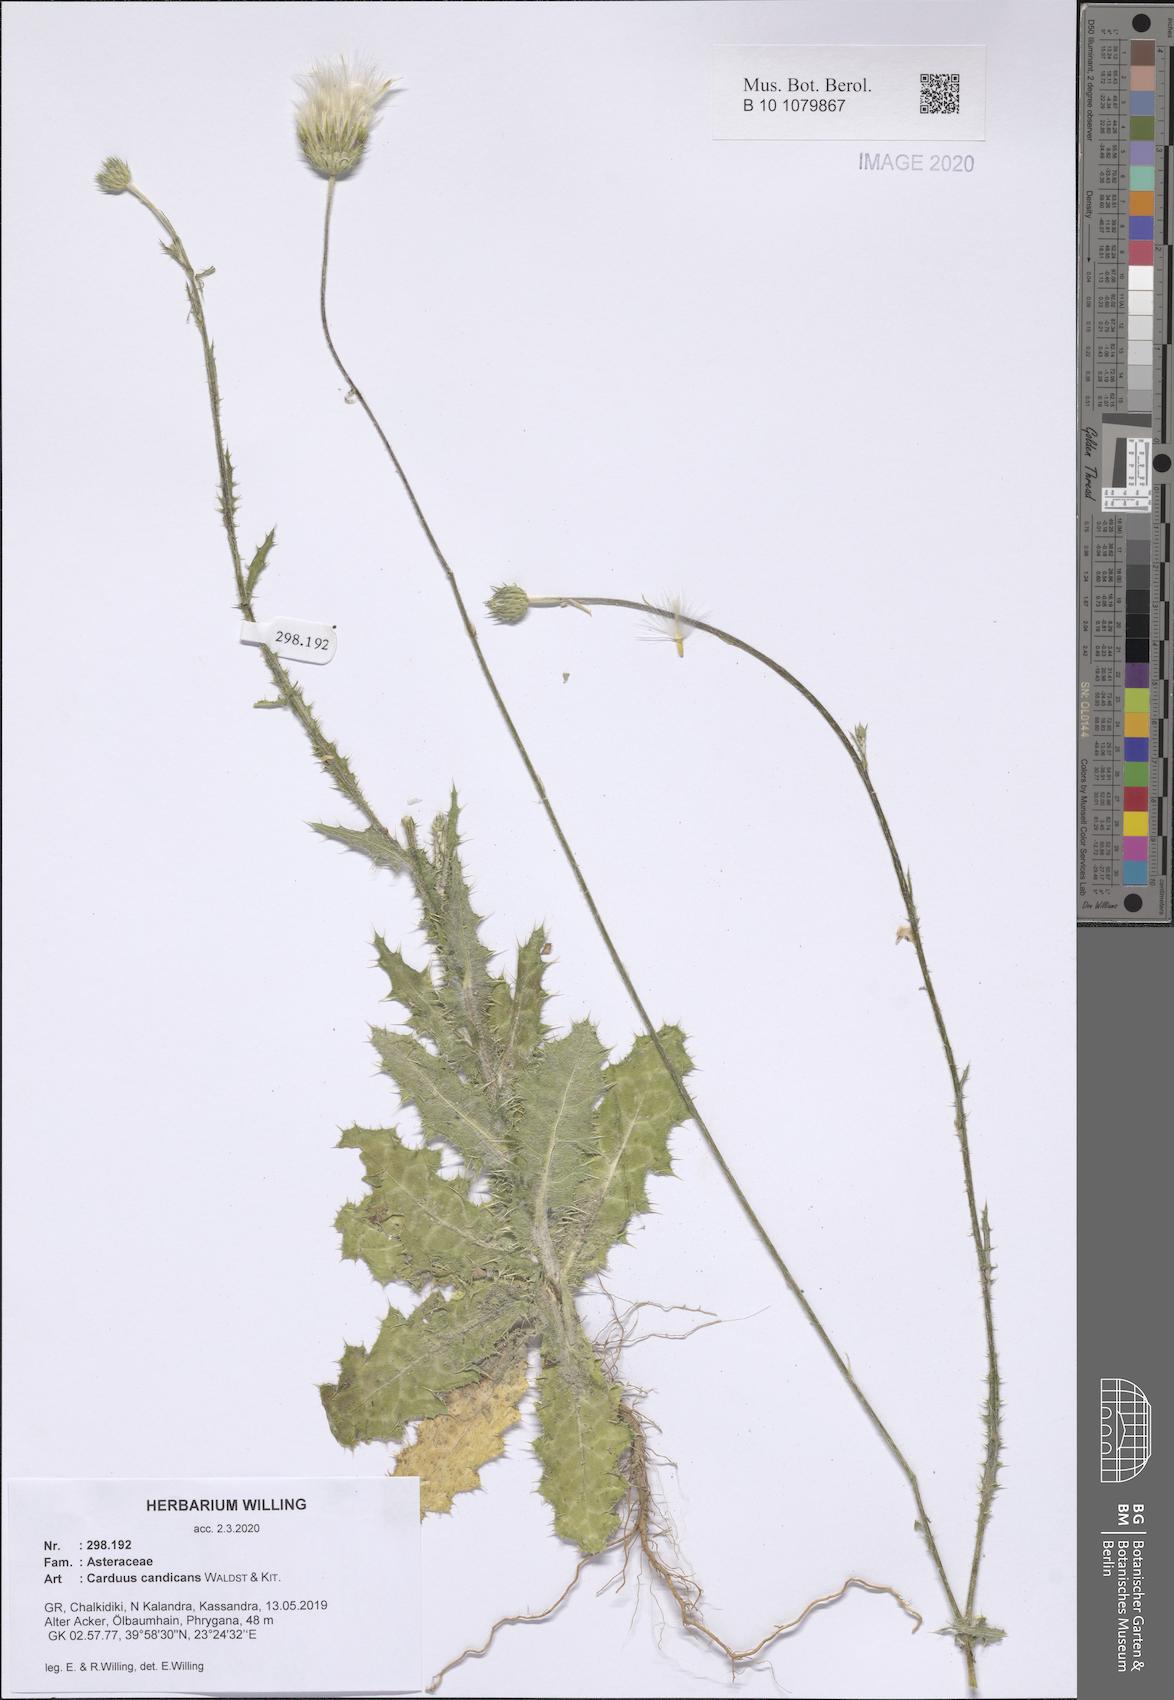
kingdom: Plantae
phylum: Tracheophyta
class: Magnoliopsida
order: Asterales
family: Asteraceae
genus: Carduus
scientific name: Carduus candicans
